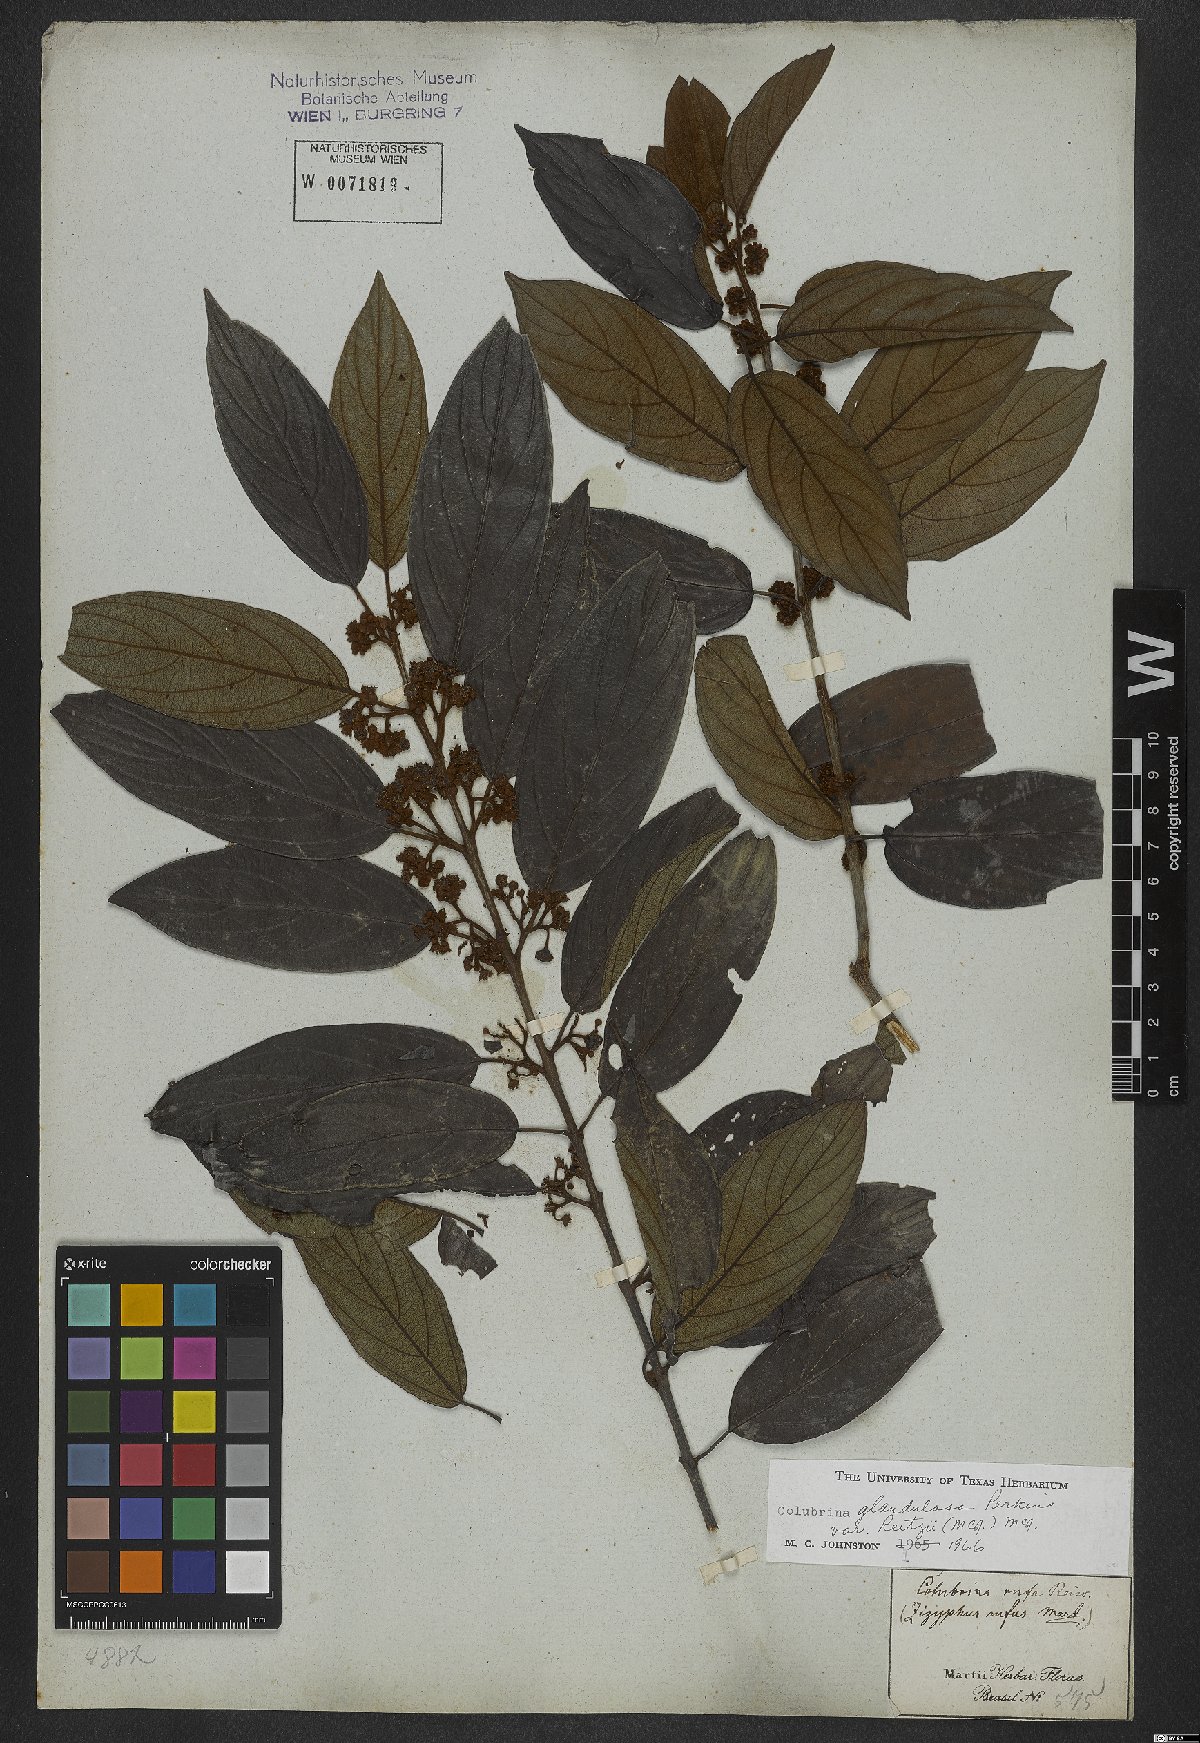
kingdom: Plantae
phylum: Tracheophyta
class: Magnoliopsida
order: Rosales
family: Rhamnaceae
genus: Colubrina
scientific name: Colubrina glandulosa
